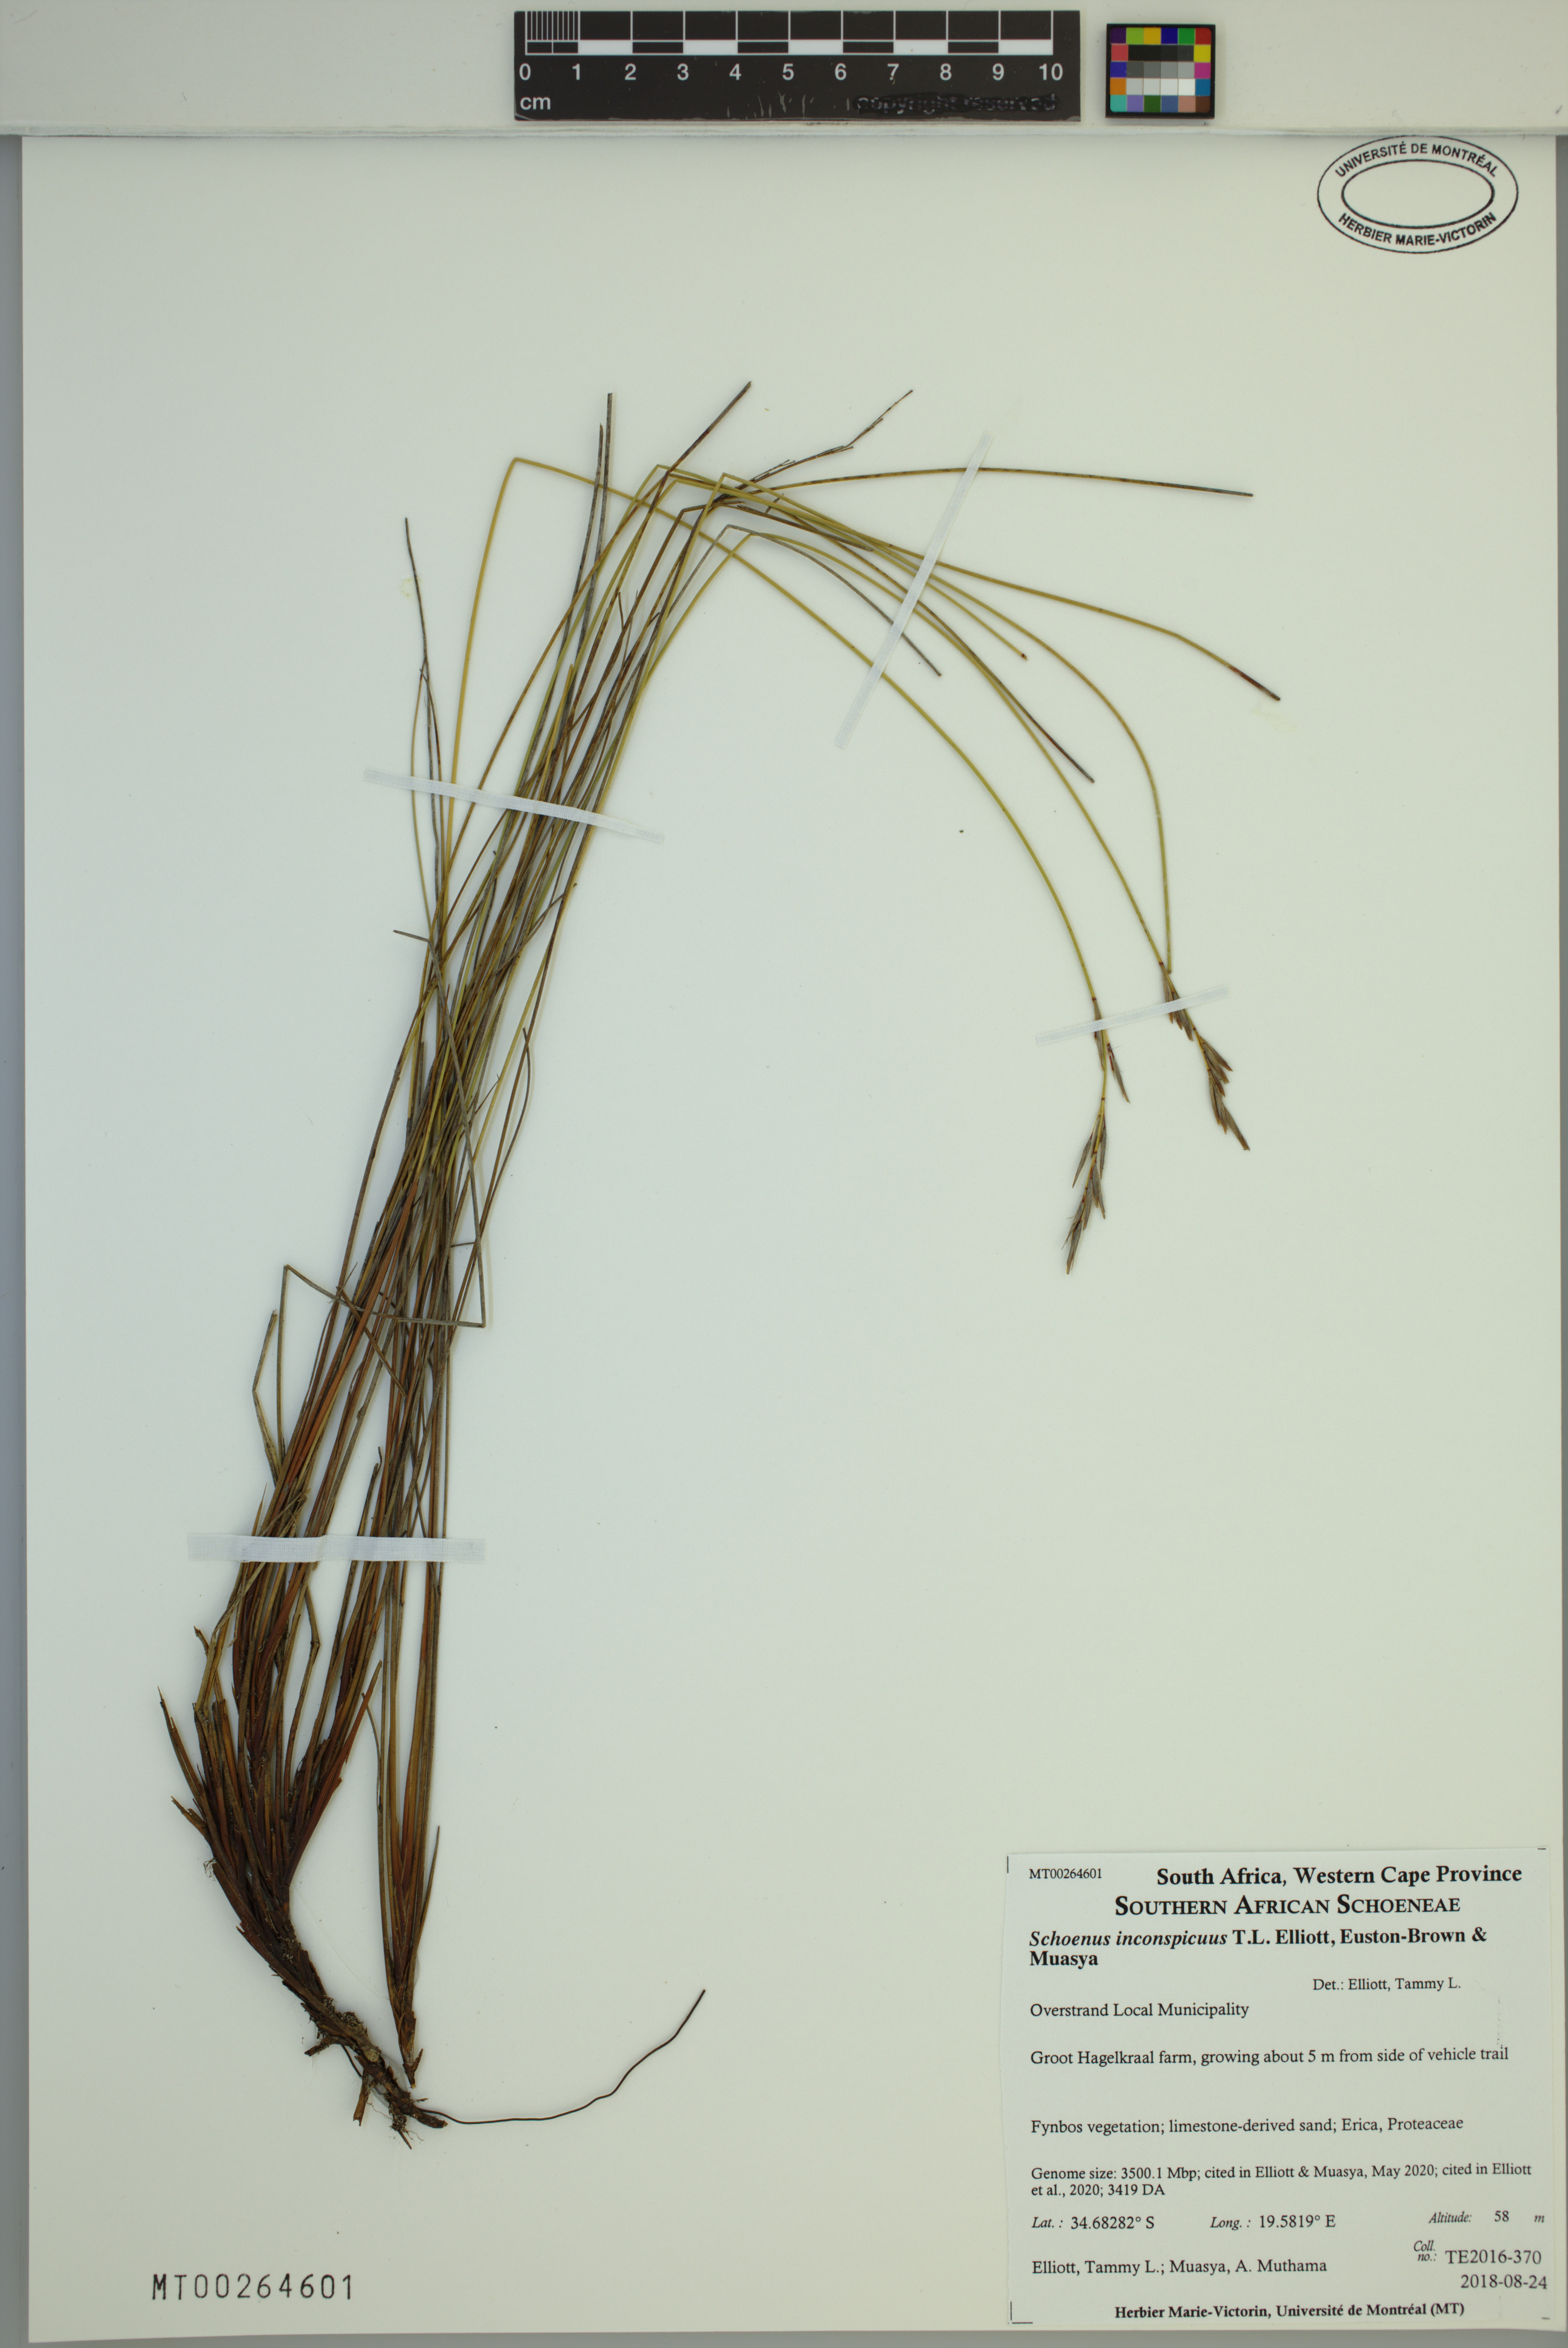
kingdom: Plantae
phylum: Tracheophyta
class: Liliopsida
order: Poales
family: Cyperaceae
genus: Schoenus
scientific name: Schoenus inconspicuus
